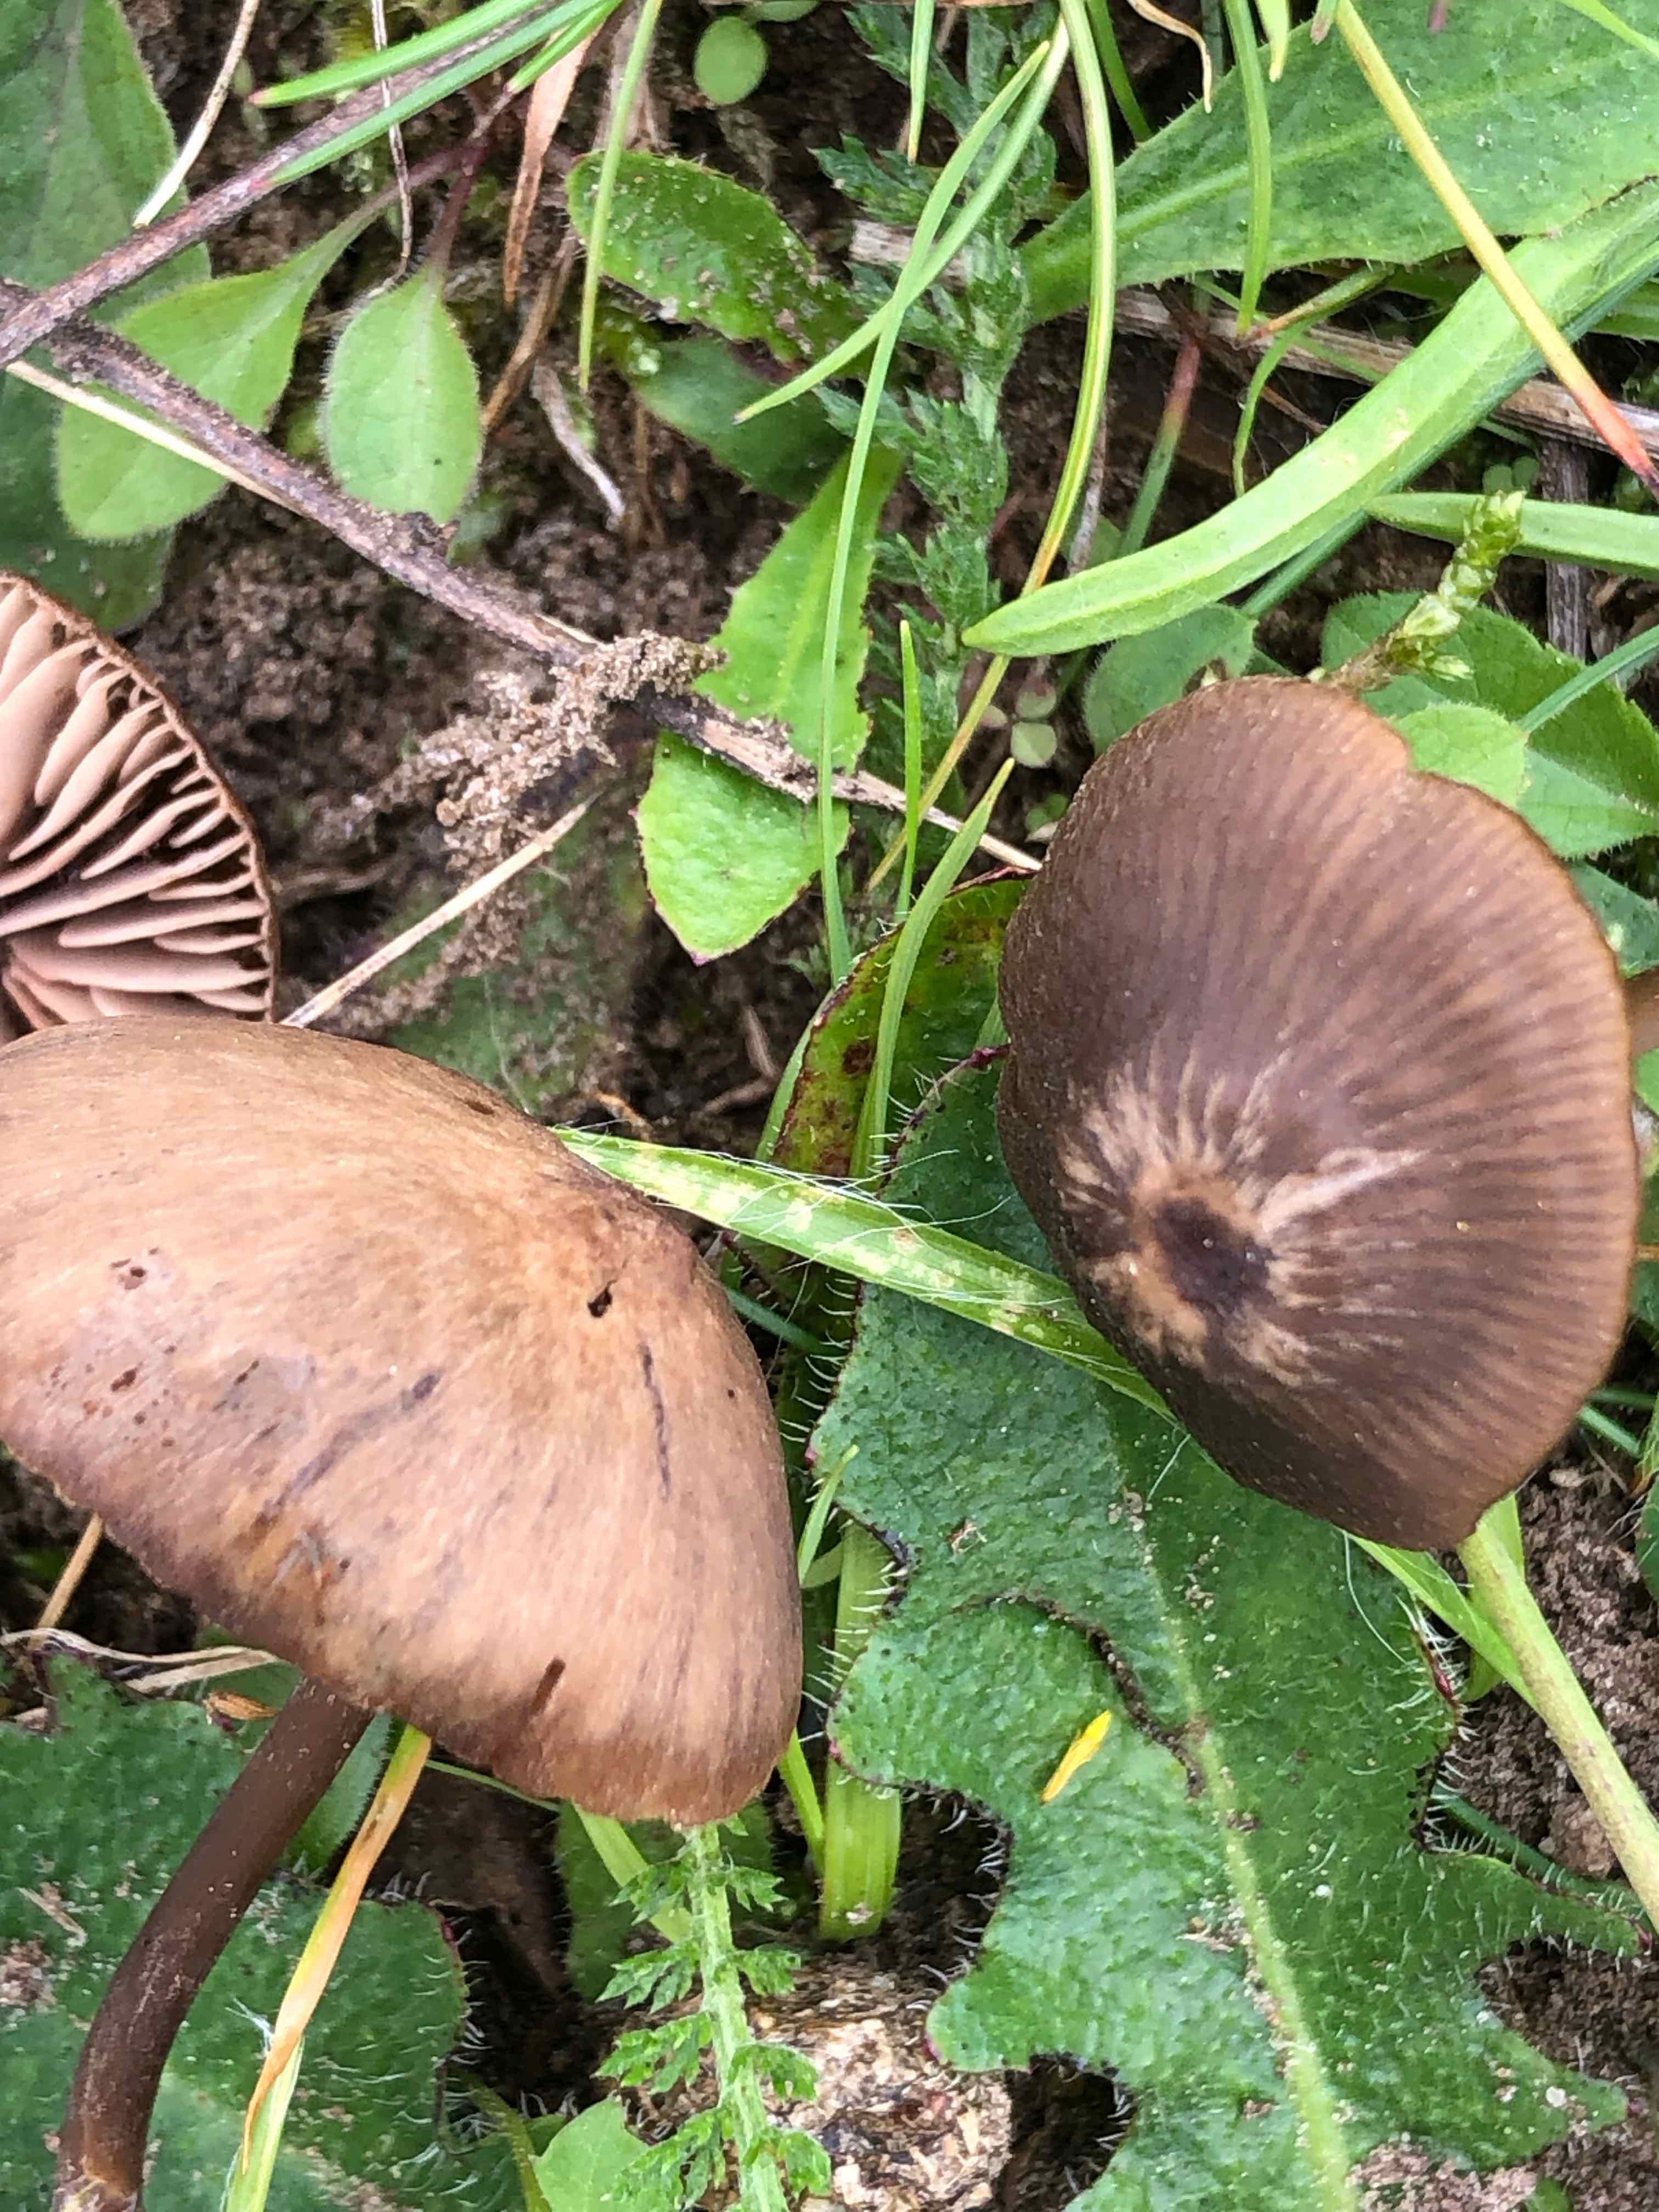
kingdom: Fungi
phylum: Basidiomycota
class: Agaricomycetes
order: Agaricales
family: Entolomataceae
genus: Entoloma
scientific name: Entoloma clandestinum
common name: tykbladet rødblad
